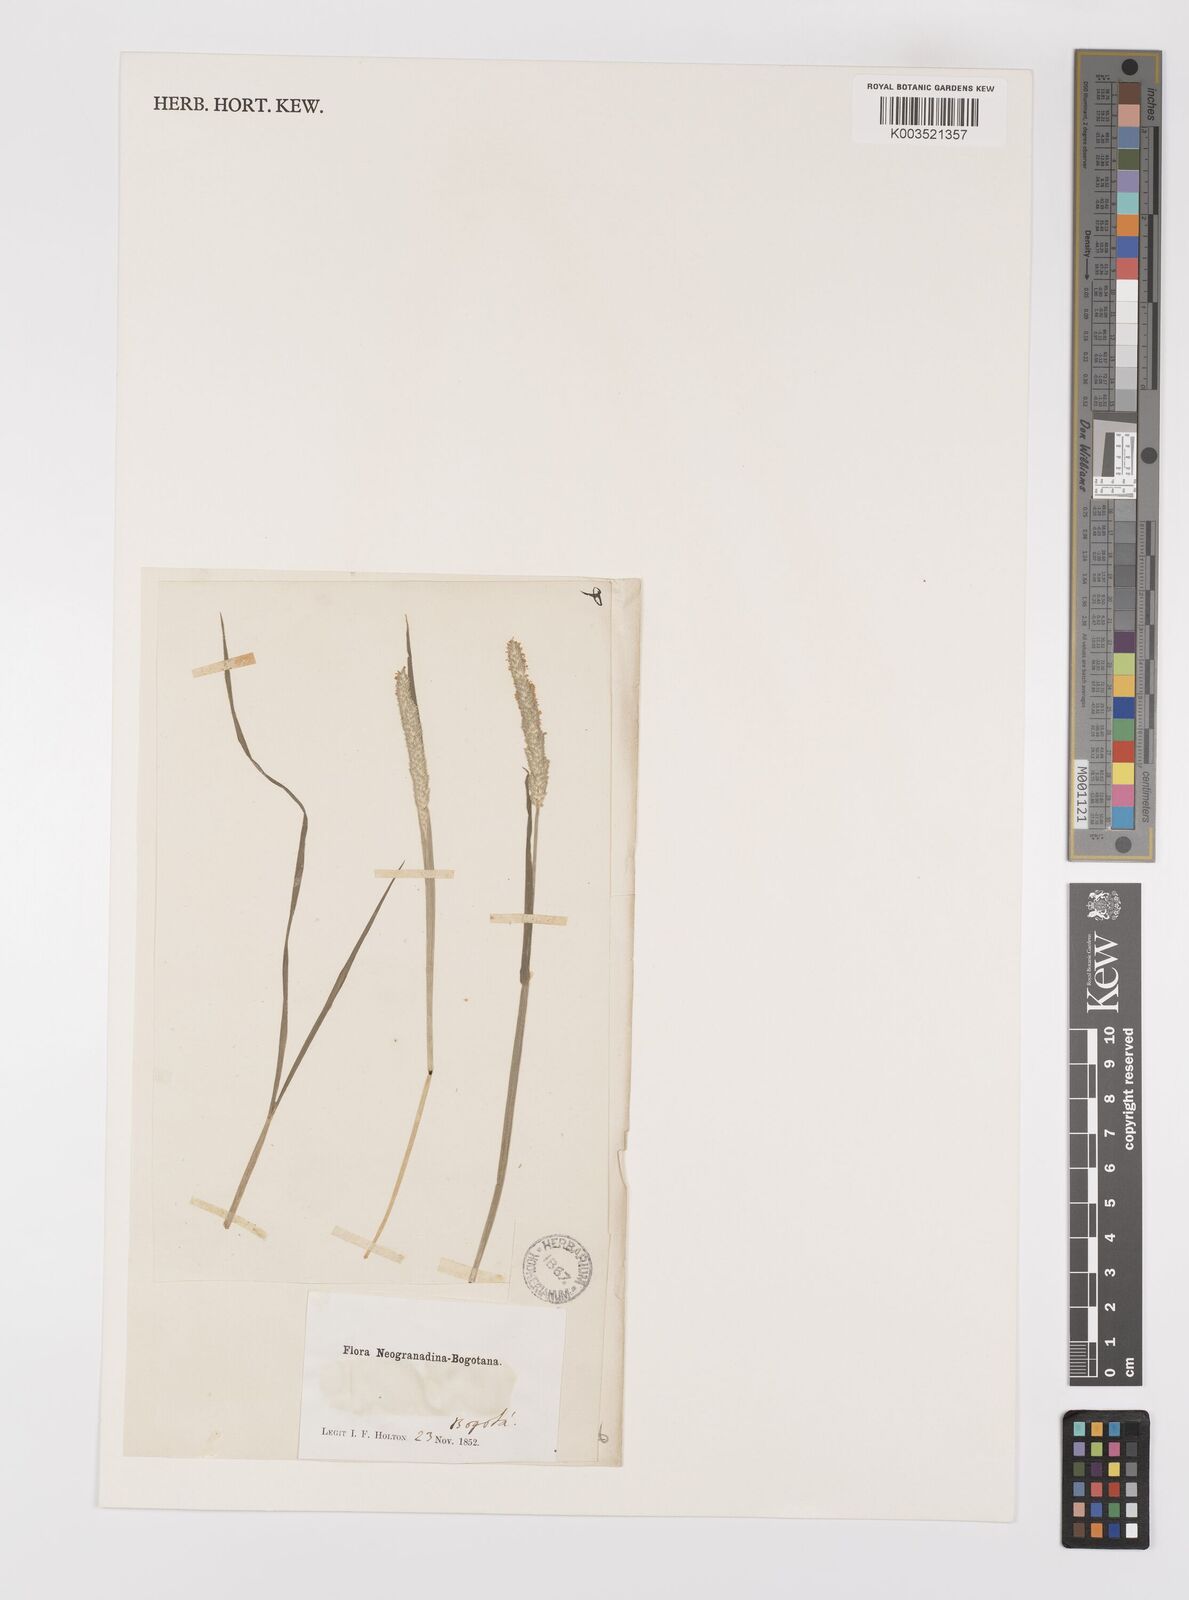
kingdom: Plantae
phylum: Tracheophyta
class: Liliopsida
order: Poales
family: Poaceae
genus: Alopecurus
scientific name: Alopecurus aequalis
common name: Orange foxtail
